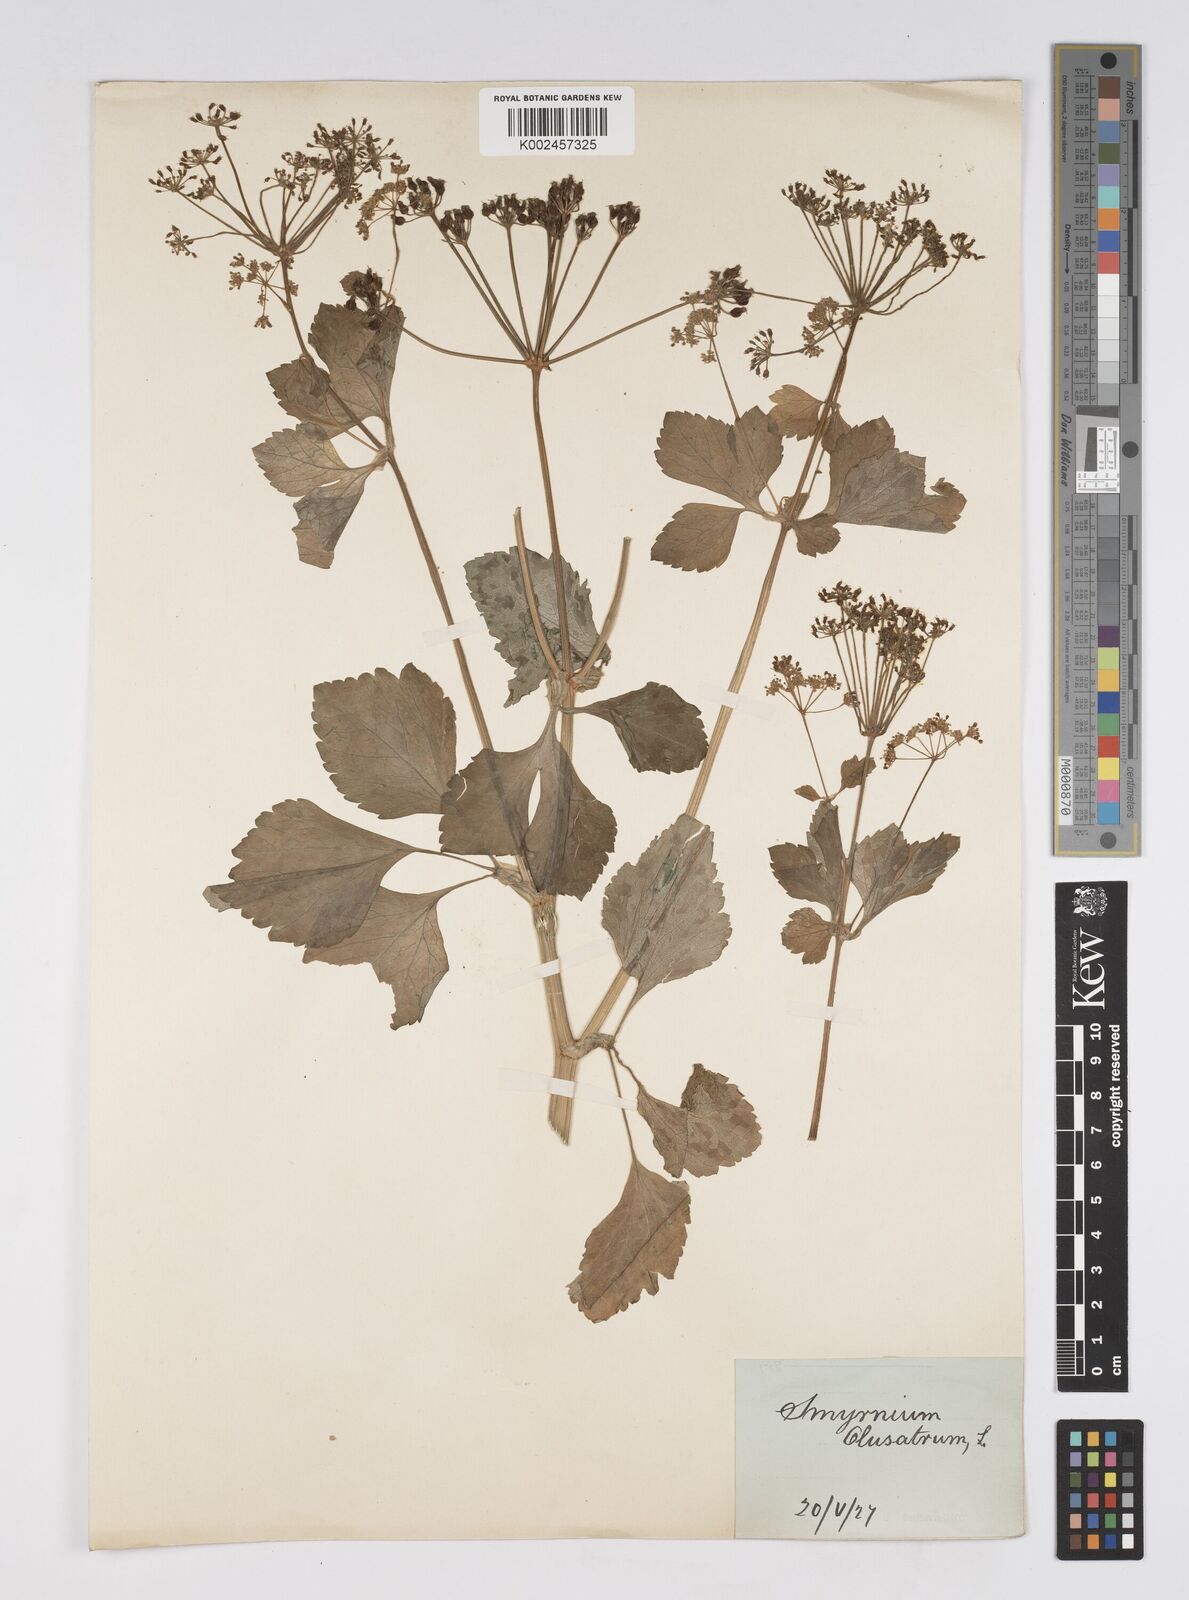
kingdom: Plantae
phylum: Tracheophyta
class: Magnoliopsida
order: Apiales
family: Apiaceae
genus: Smyrnium
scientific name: Smyrnium olusatrum
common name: Alexanders
